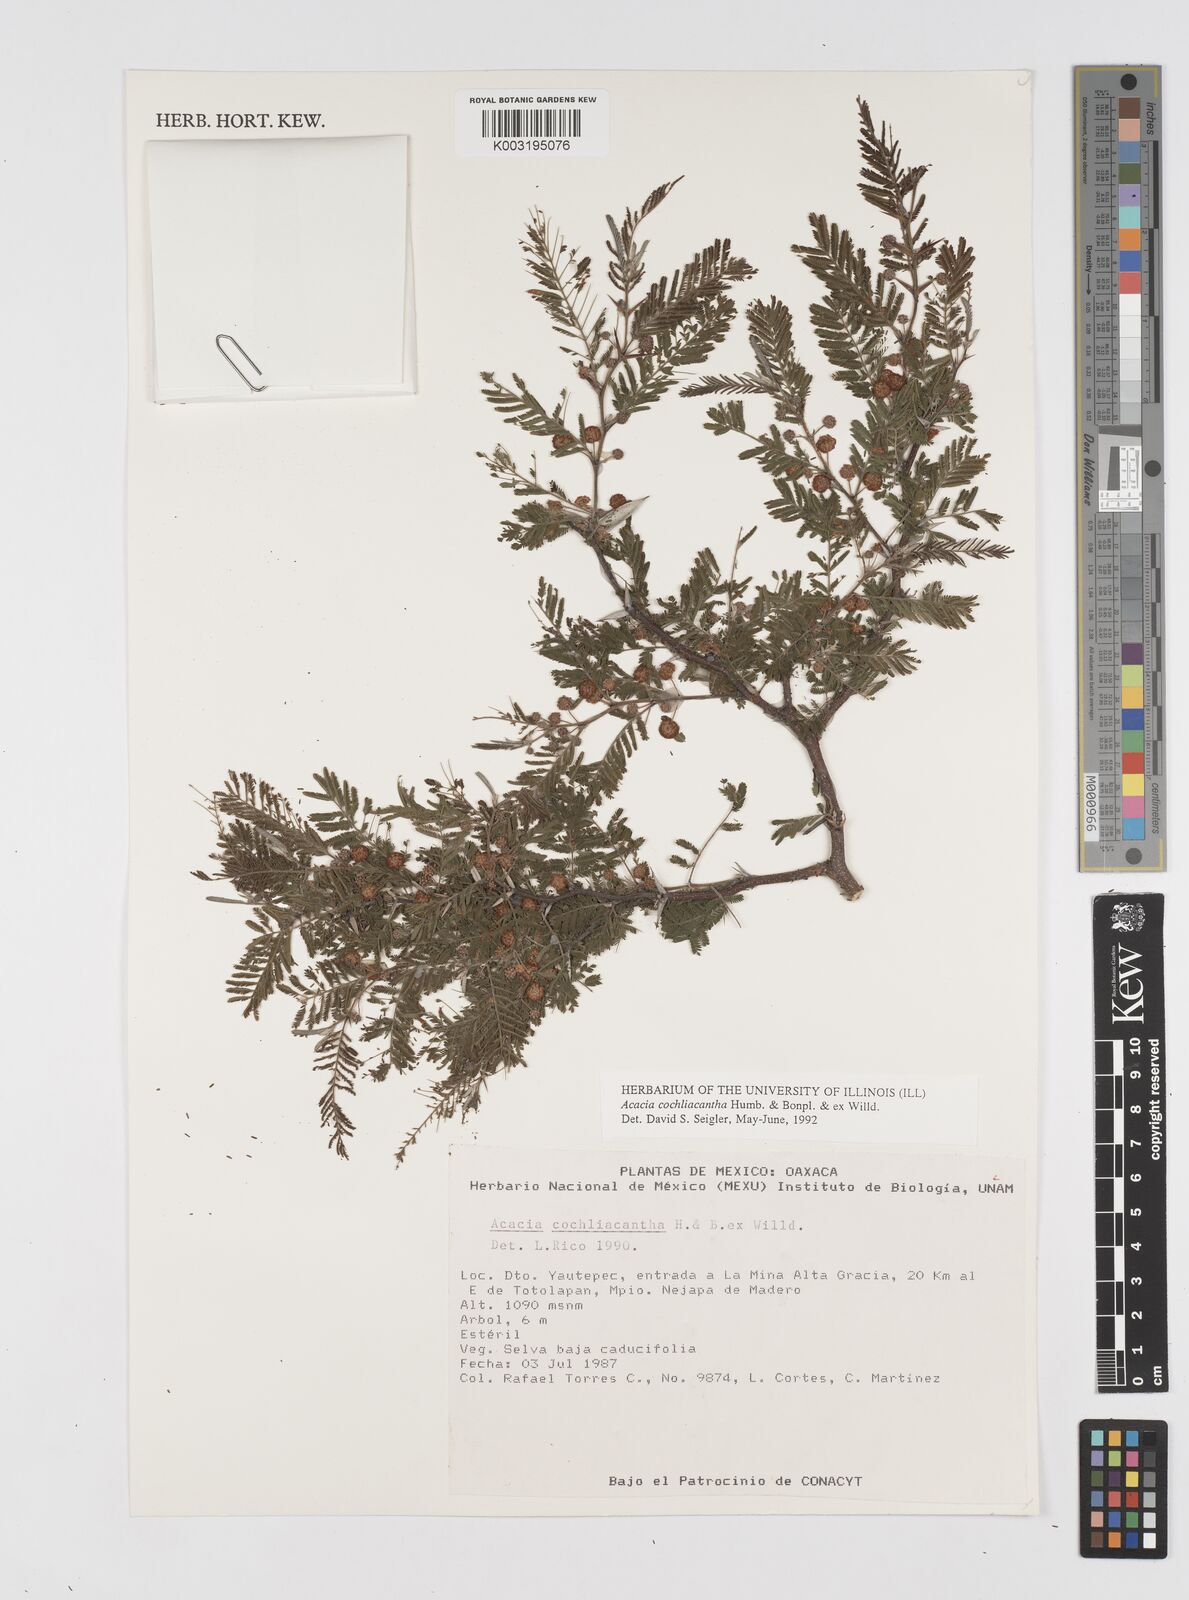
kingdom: Plantae
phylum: Tracheophyta
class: Magnoliopsida
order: Fabales
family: Fabaceae
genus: Vachellia
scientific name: Vachellia campeachiana
